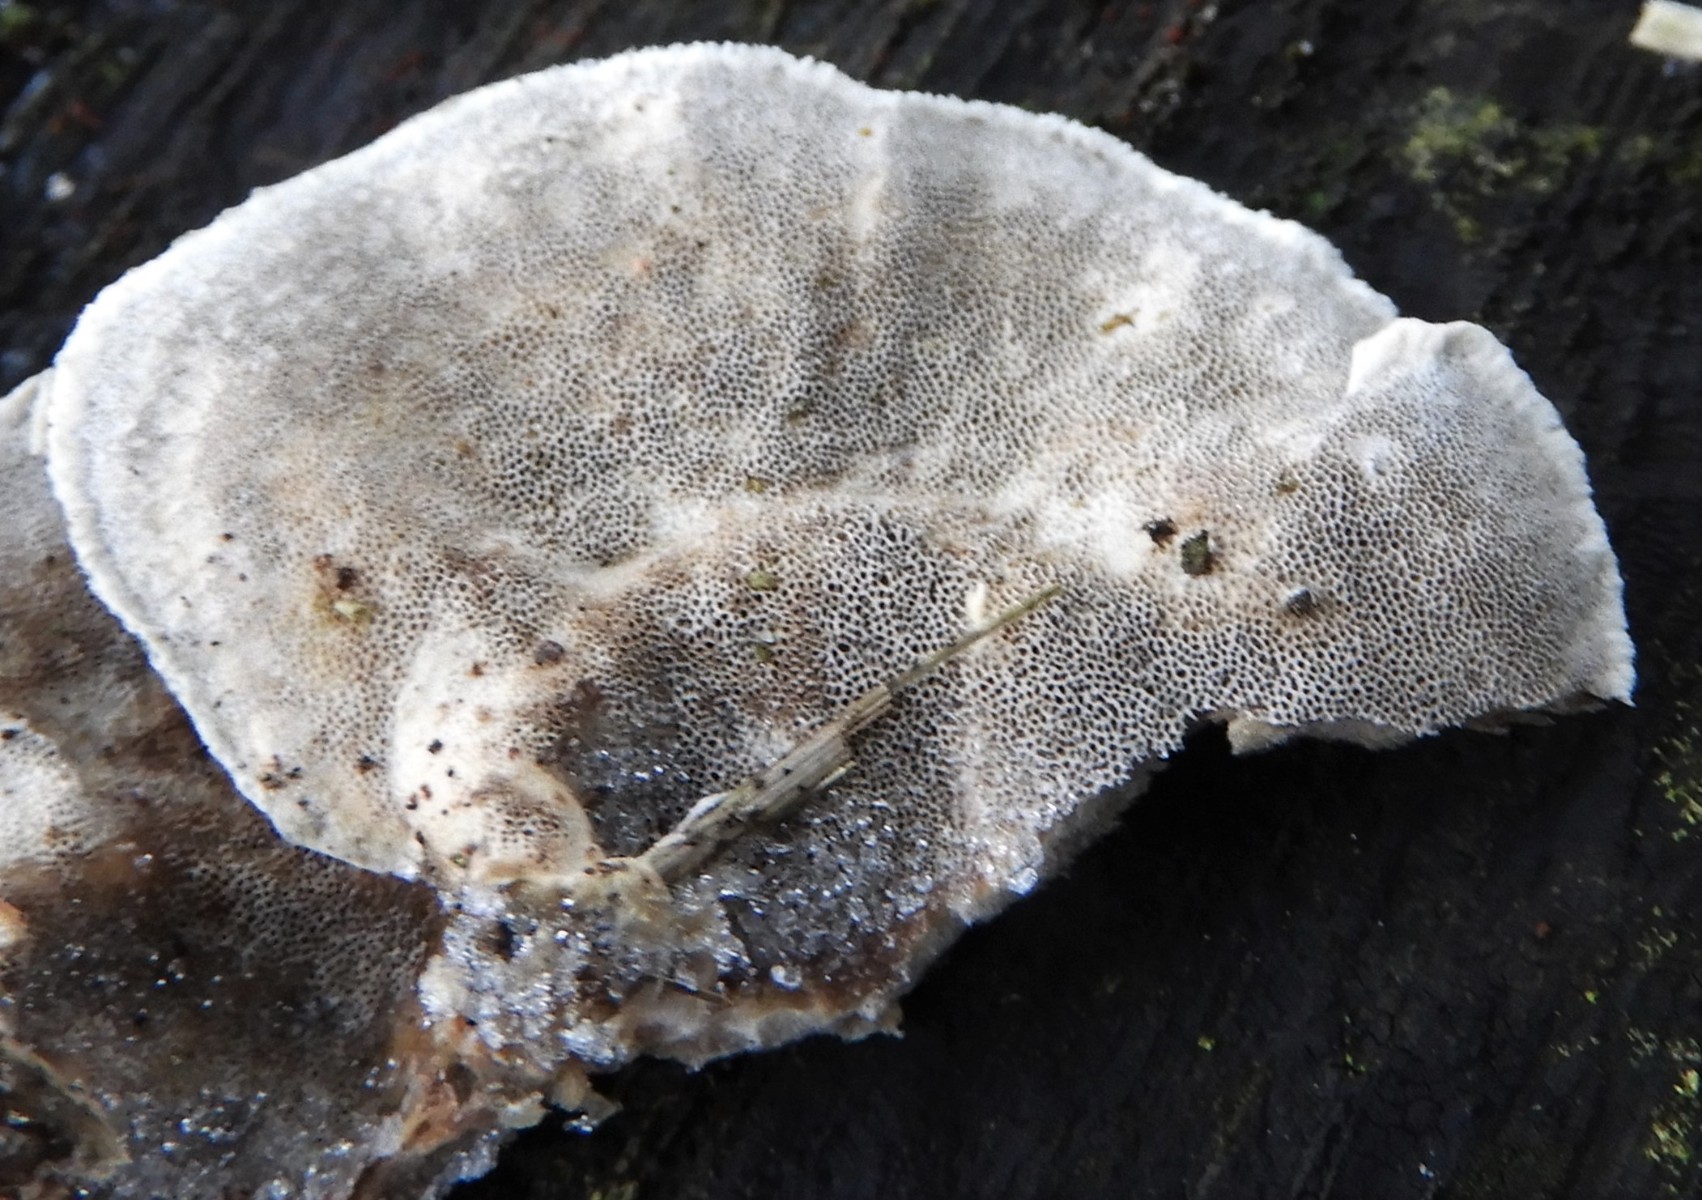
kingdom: Fungi
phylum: Basidiomycota
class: Agaricomycetes
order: Polyporales
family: Phanerochaetaceae
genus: Bjerkandera
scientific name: Bjerkandera adusta
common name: sveden sodporesvamp
